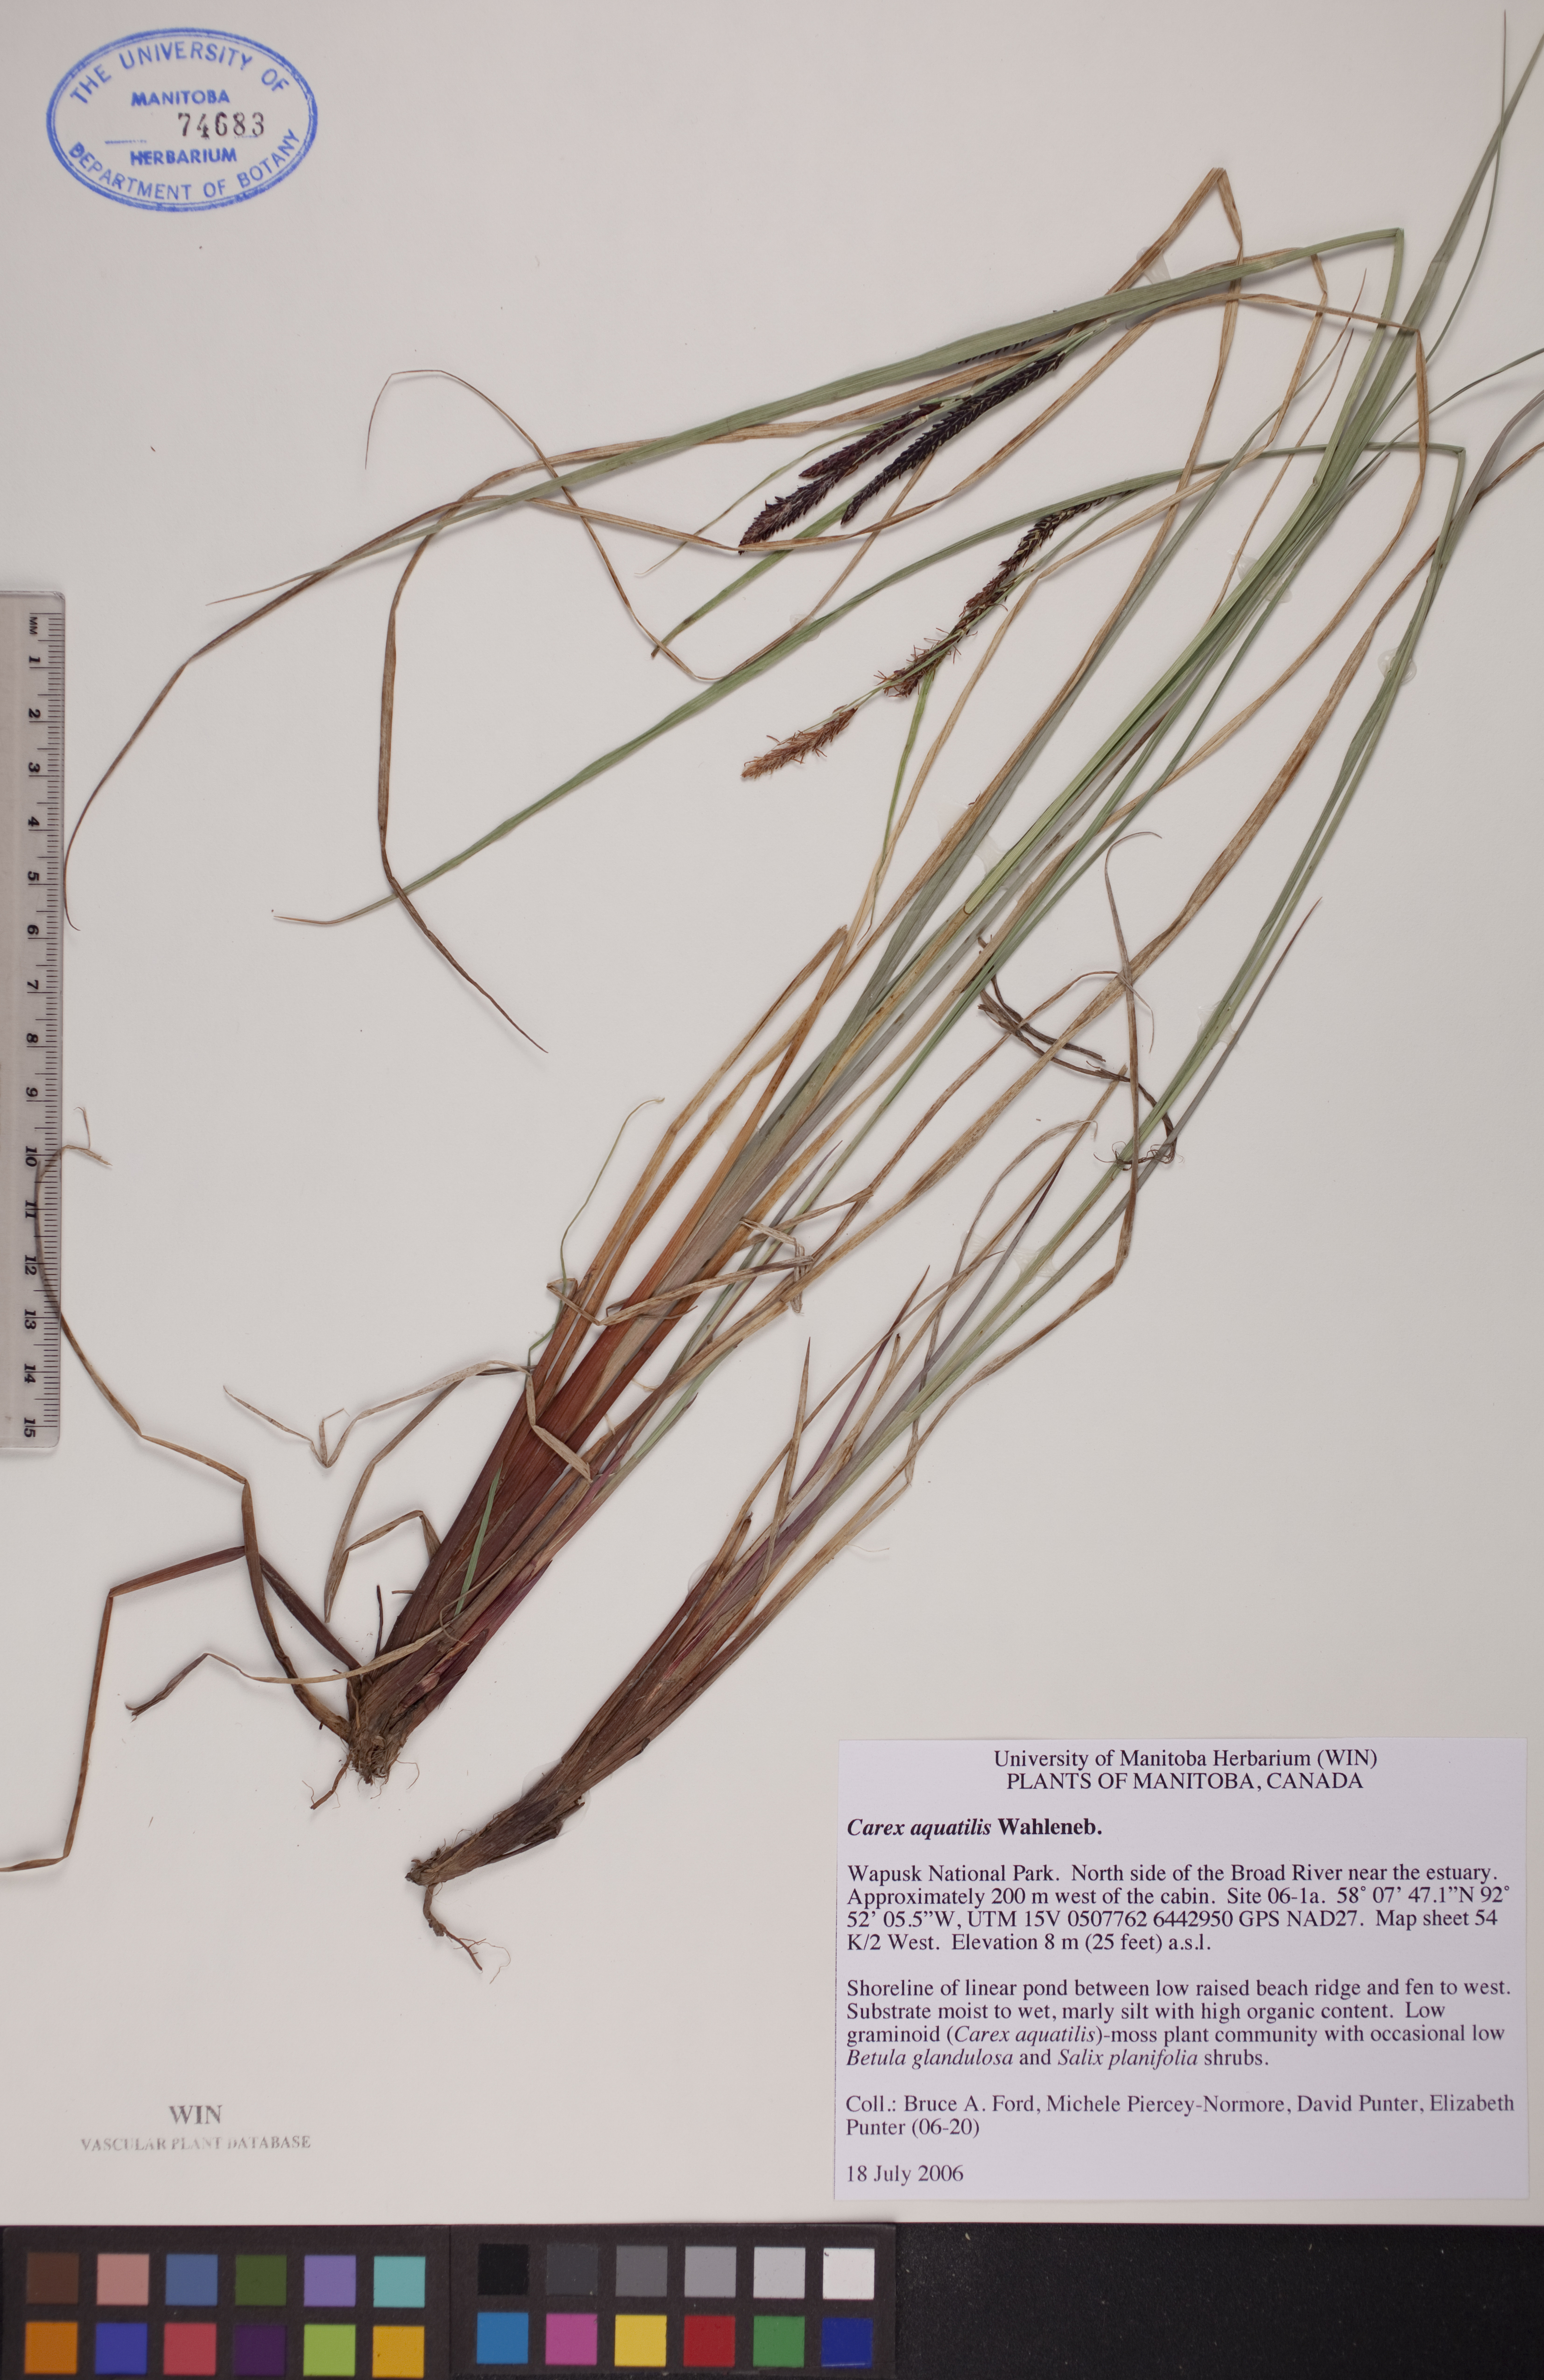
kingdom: Plantae
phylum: Tracheophyta
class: Liliopsida
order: Poales
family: Cyperaceae
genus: Carex
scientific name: Carex aquatilis
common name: Water sedge
